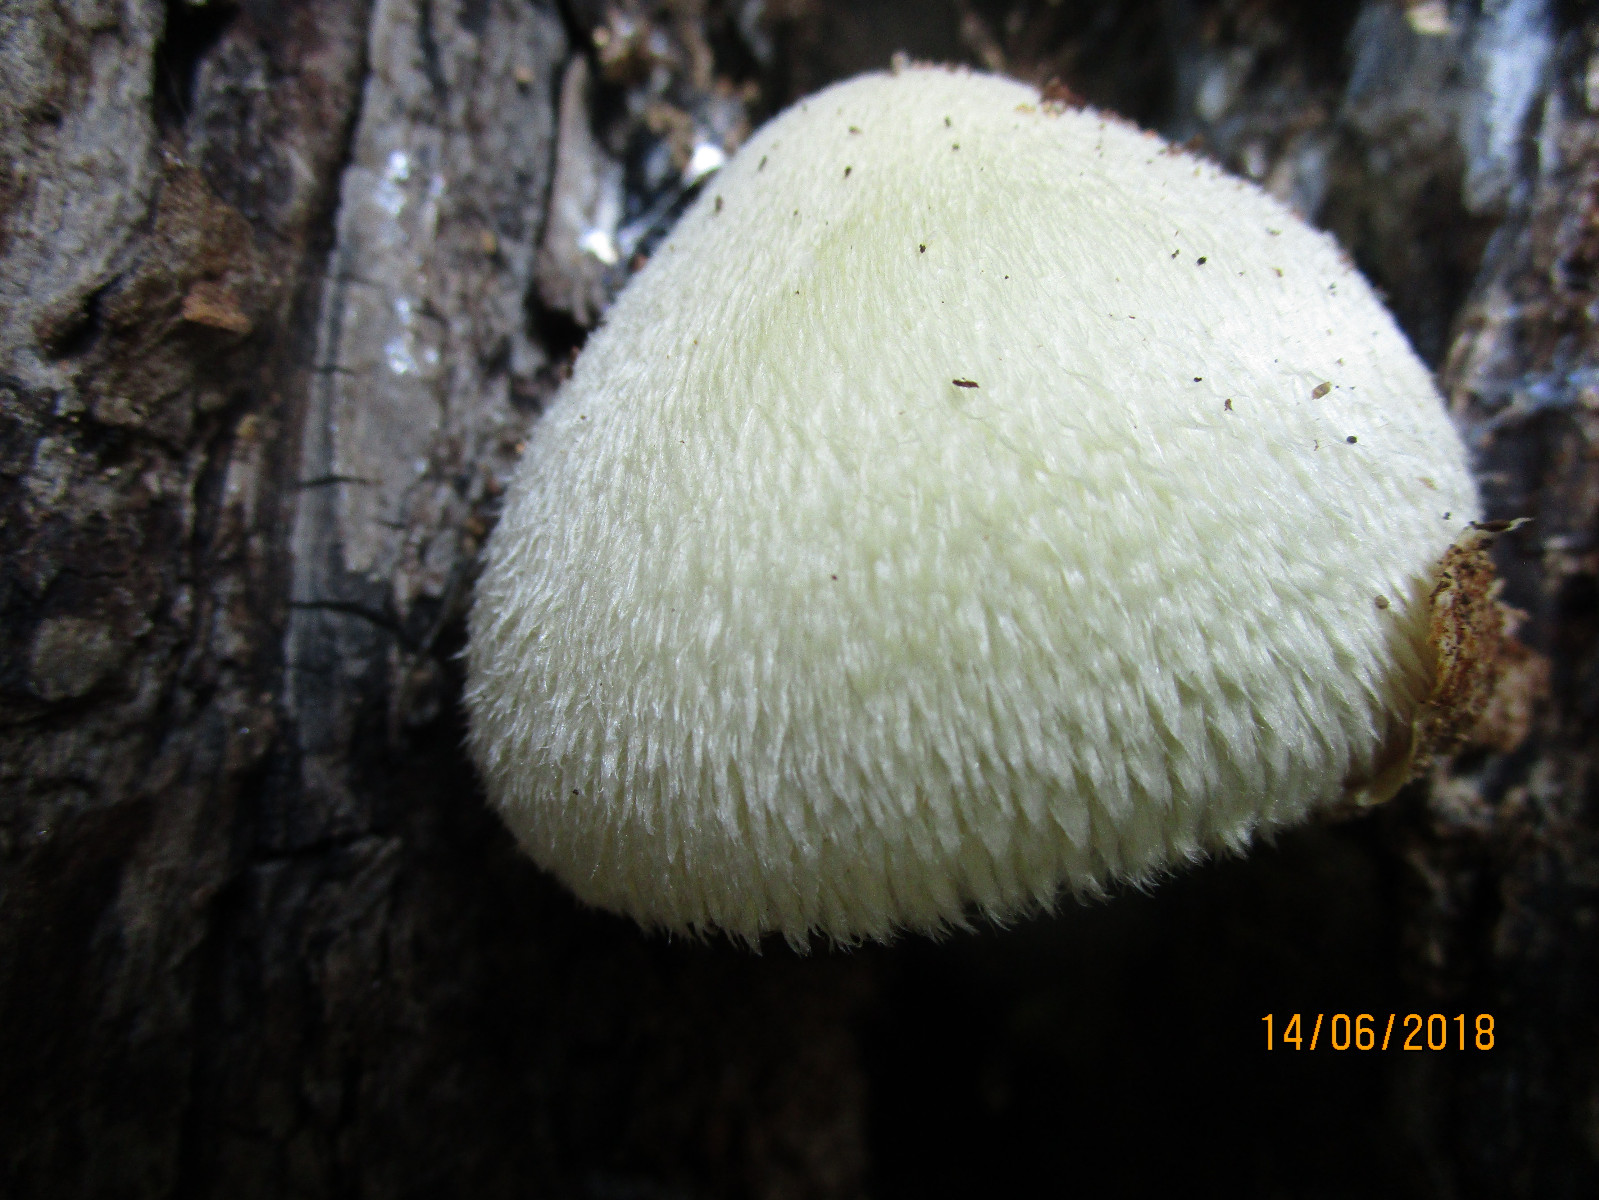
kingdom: Fungi
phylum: Basidiomycota
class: Agaricomycetes
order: Agaricales
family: Pluteaceae
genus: Volvariella
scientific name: Volvariella bombycina
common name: silkehåret posesvamp
